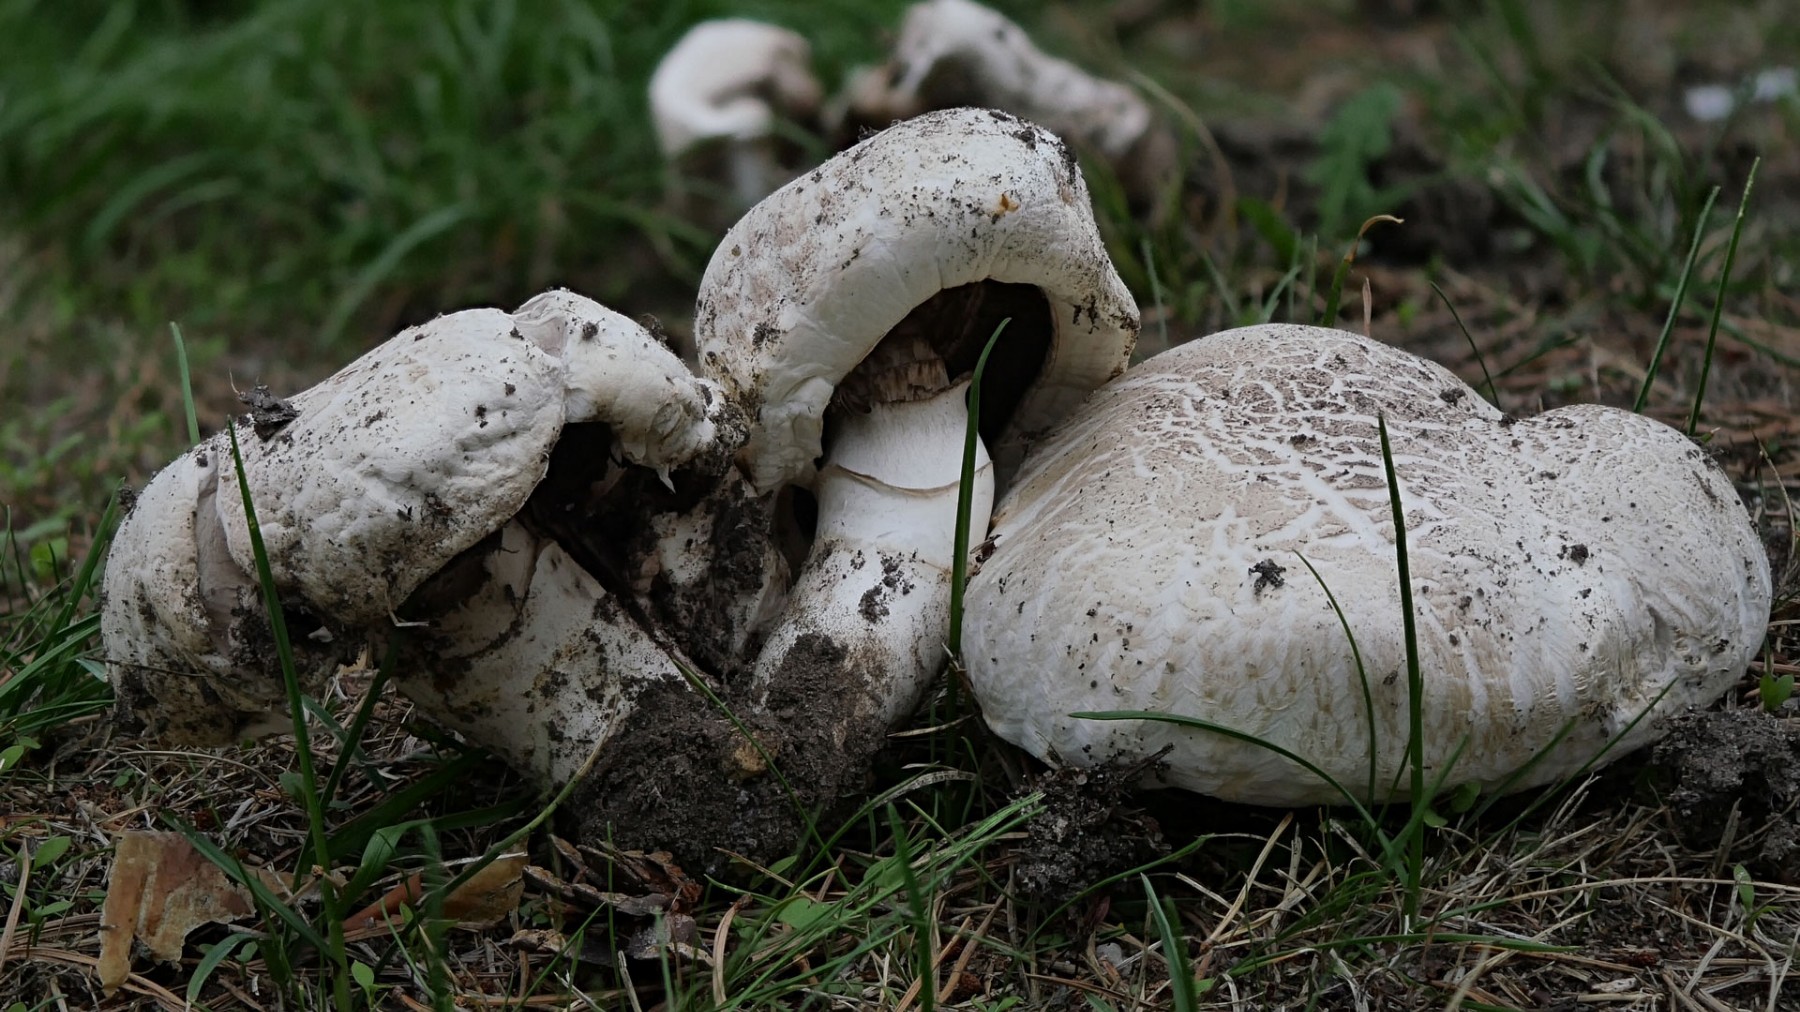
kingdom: Fungi
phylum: Basidiomycota
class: Agaricomycetes
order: Agaricales
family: Agaricaceae
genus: Agaricus
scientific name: Agaricus bitorquis
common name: vej-champignon
